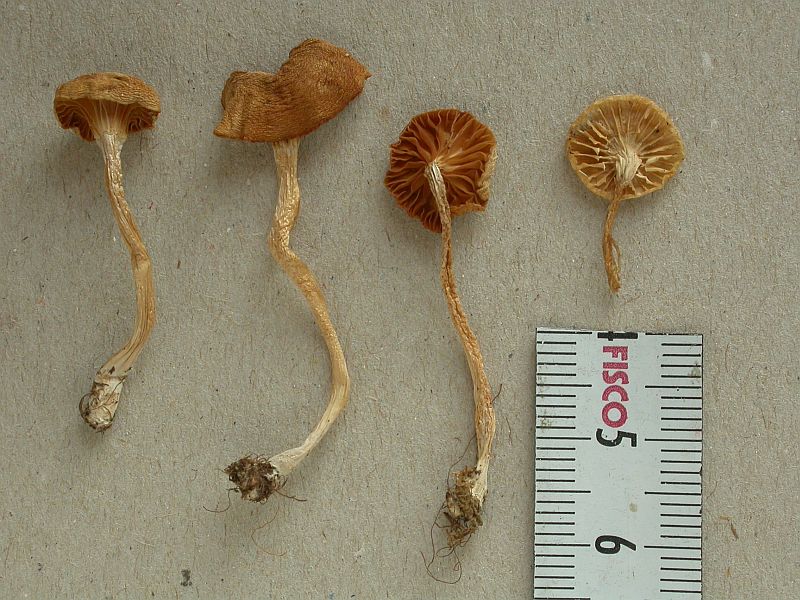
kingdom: Fungi
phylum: Basidiomycota
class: Agaricomycetes
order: Agaricales
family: Hygrophoraceae
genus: Cuphophyllus
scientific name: Cuphophyllus virgineus
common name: snehvid vokshat
